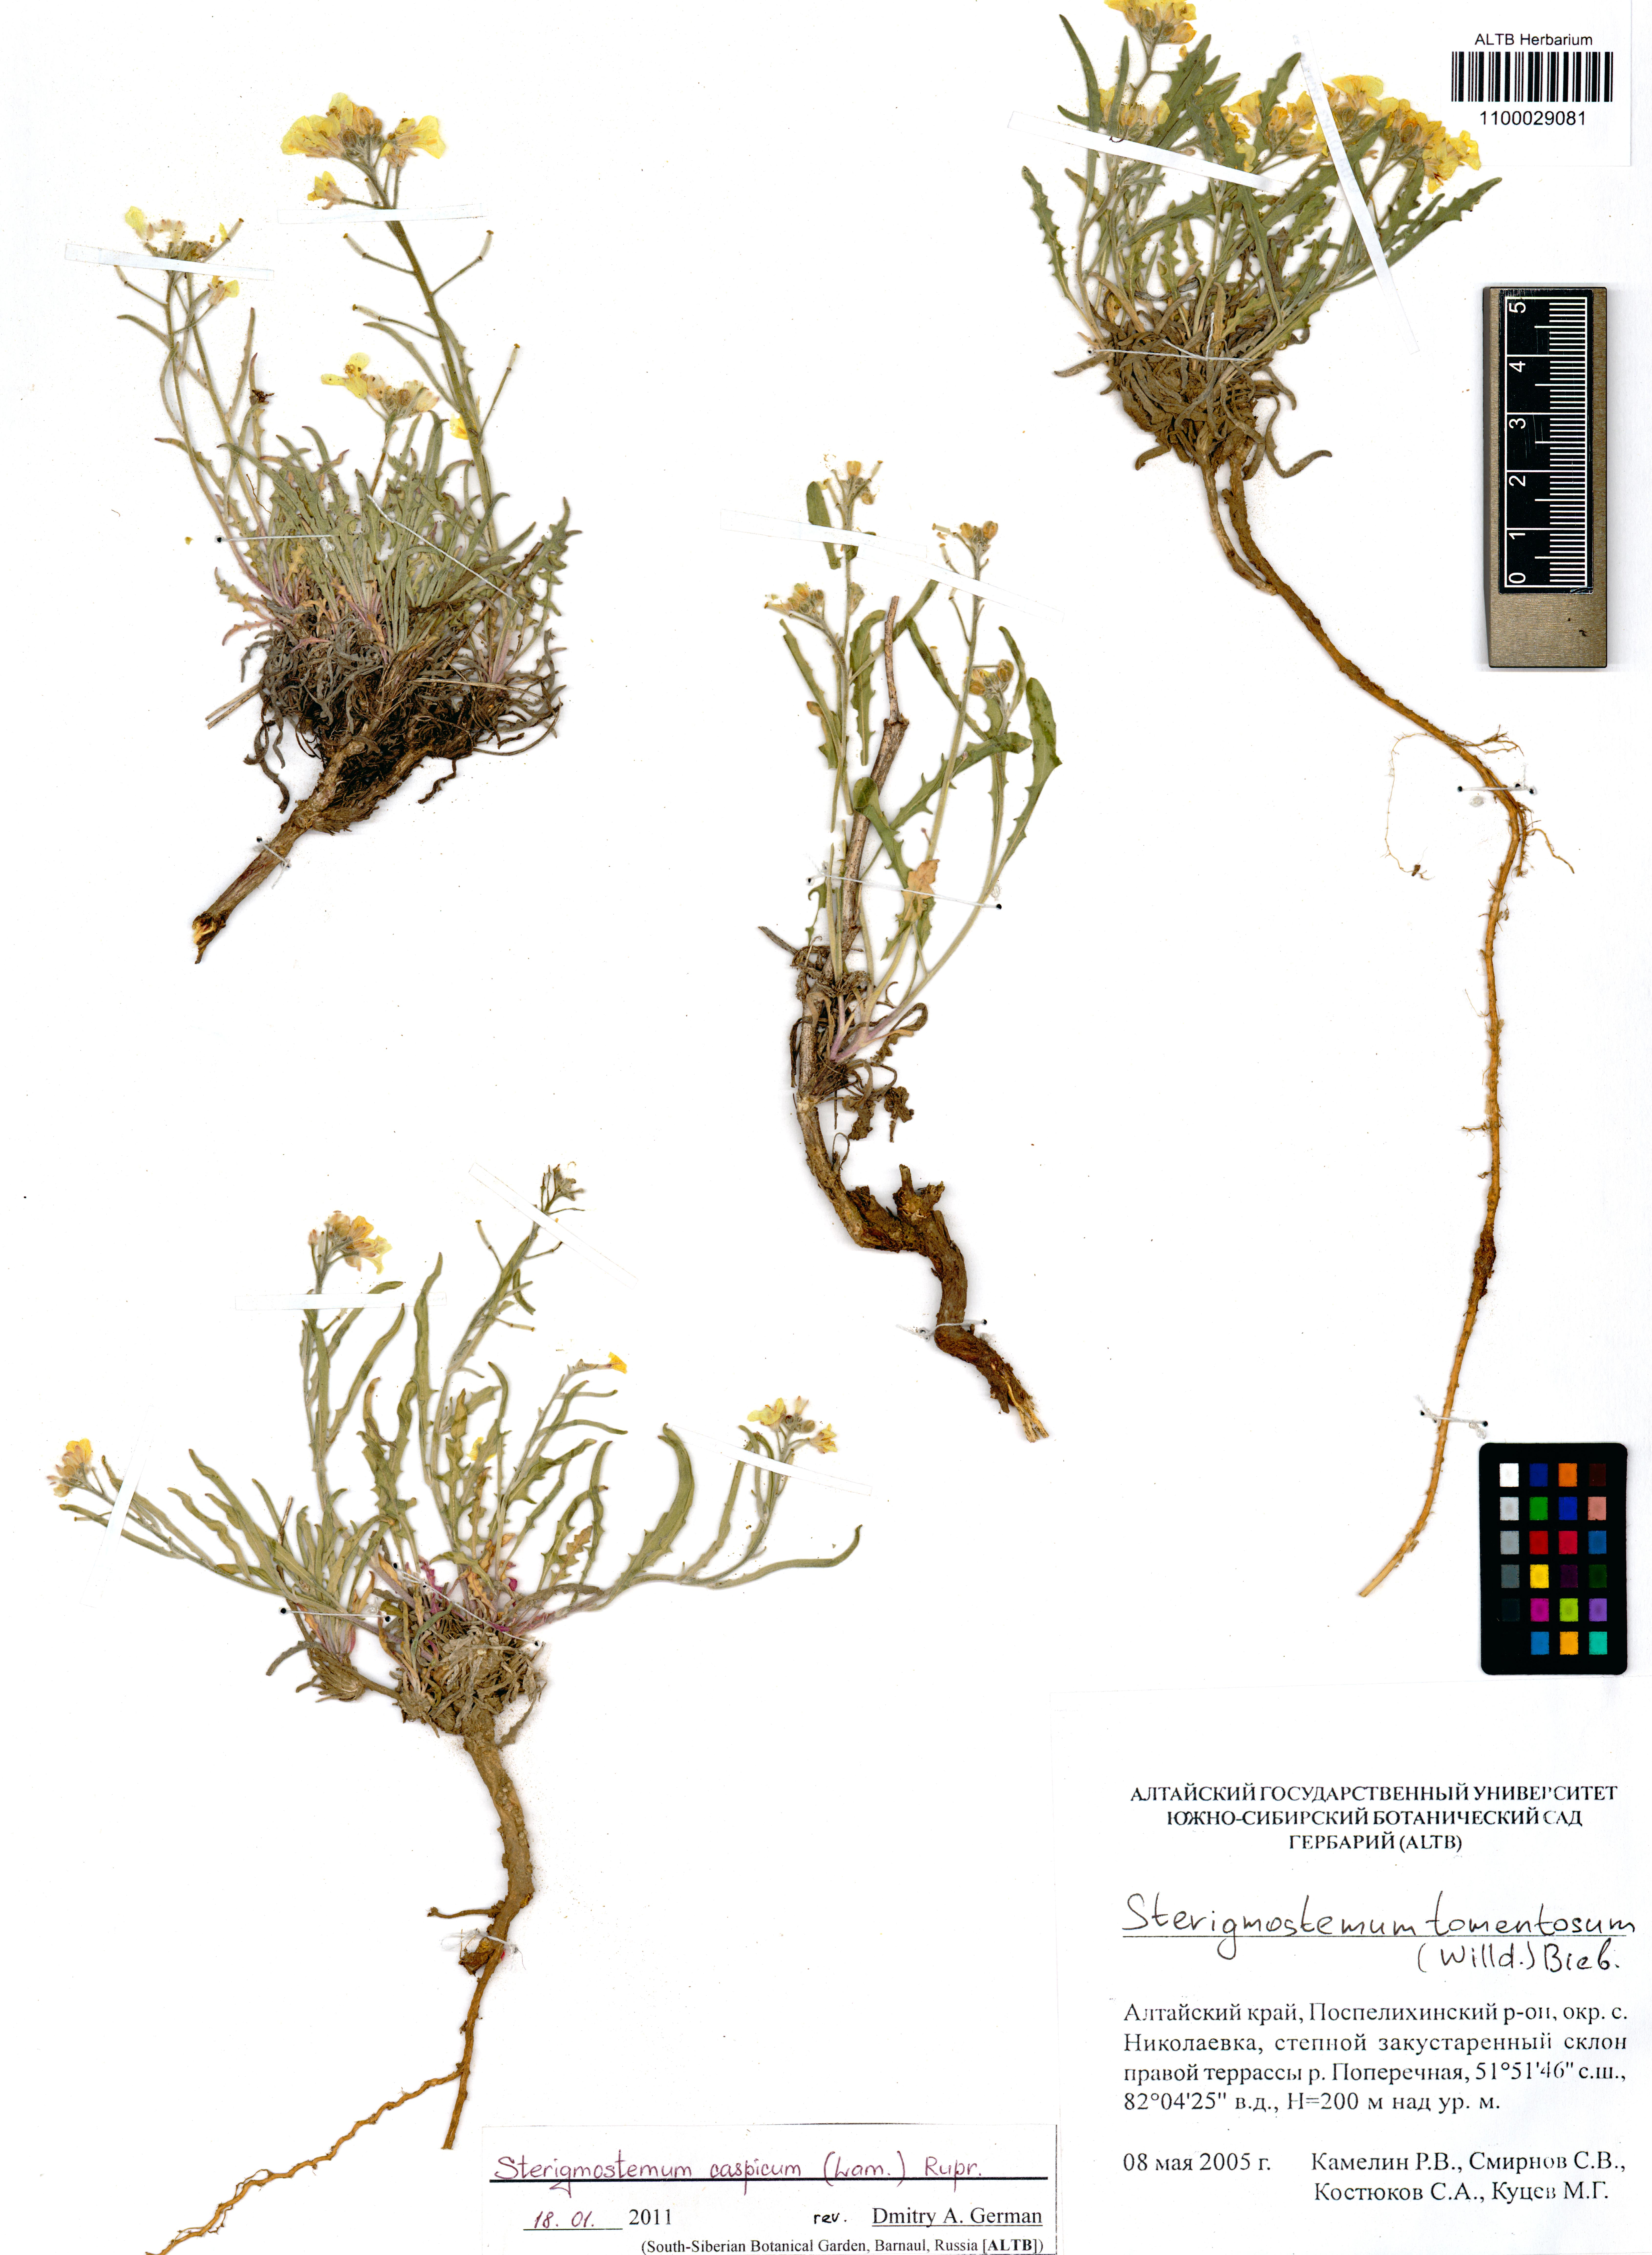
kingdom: Plantae
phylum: Tracheophyta
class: Magnoliopsida
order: Brassicales
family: Brassicaceae
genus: Sterigmostemum
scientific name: Sterigmostemum caspicum
